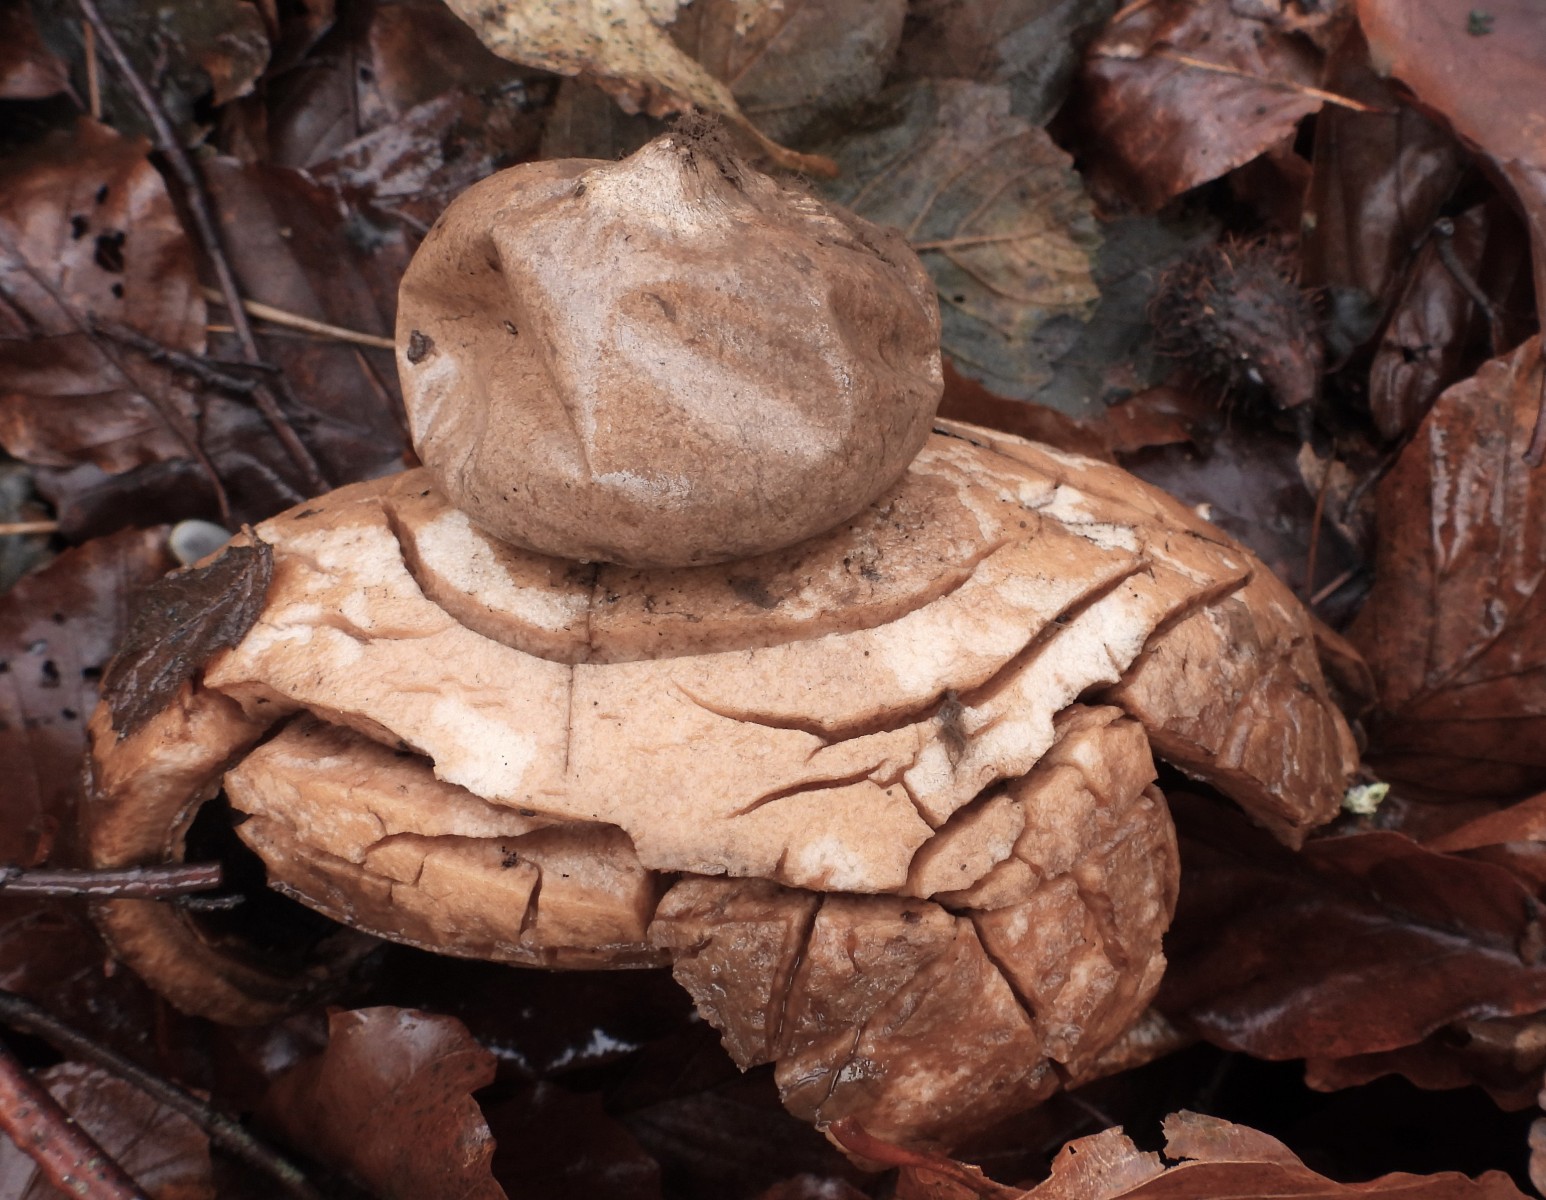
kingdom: Fungi
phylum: Basidiomycota
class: Agaricomycetes
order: Geastrales
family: Geastraceae
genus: Geastrum
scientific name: Geastrum michelianum
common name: kødet stjernebold
